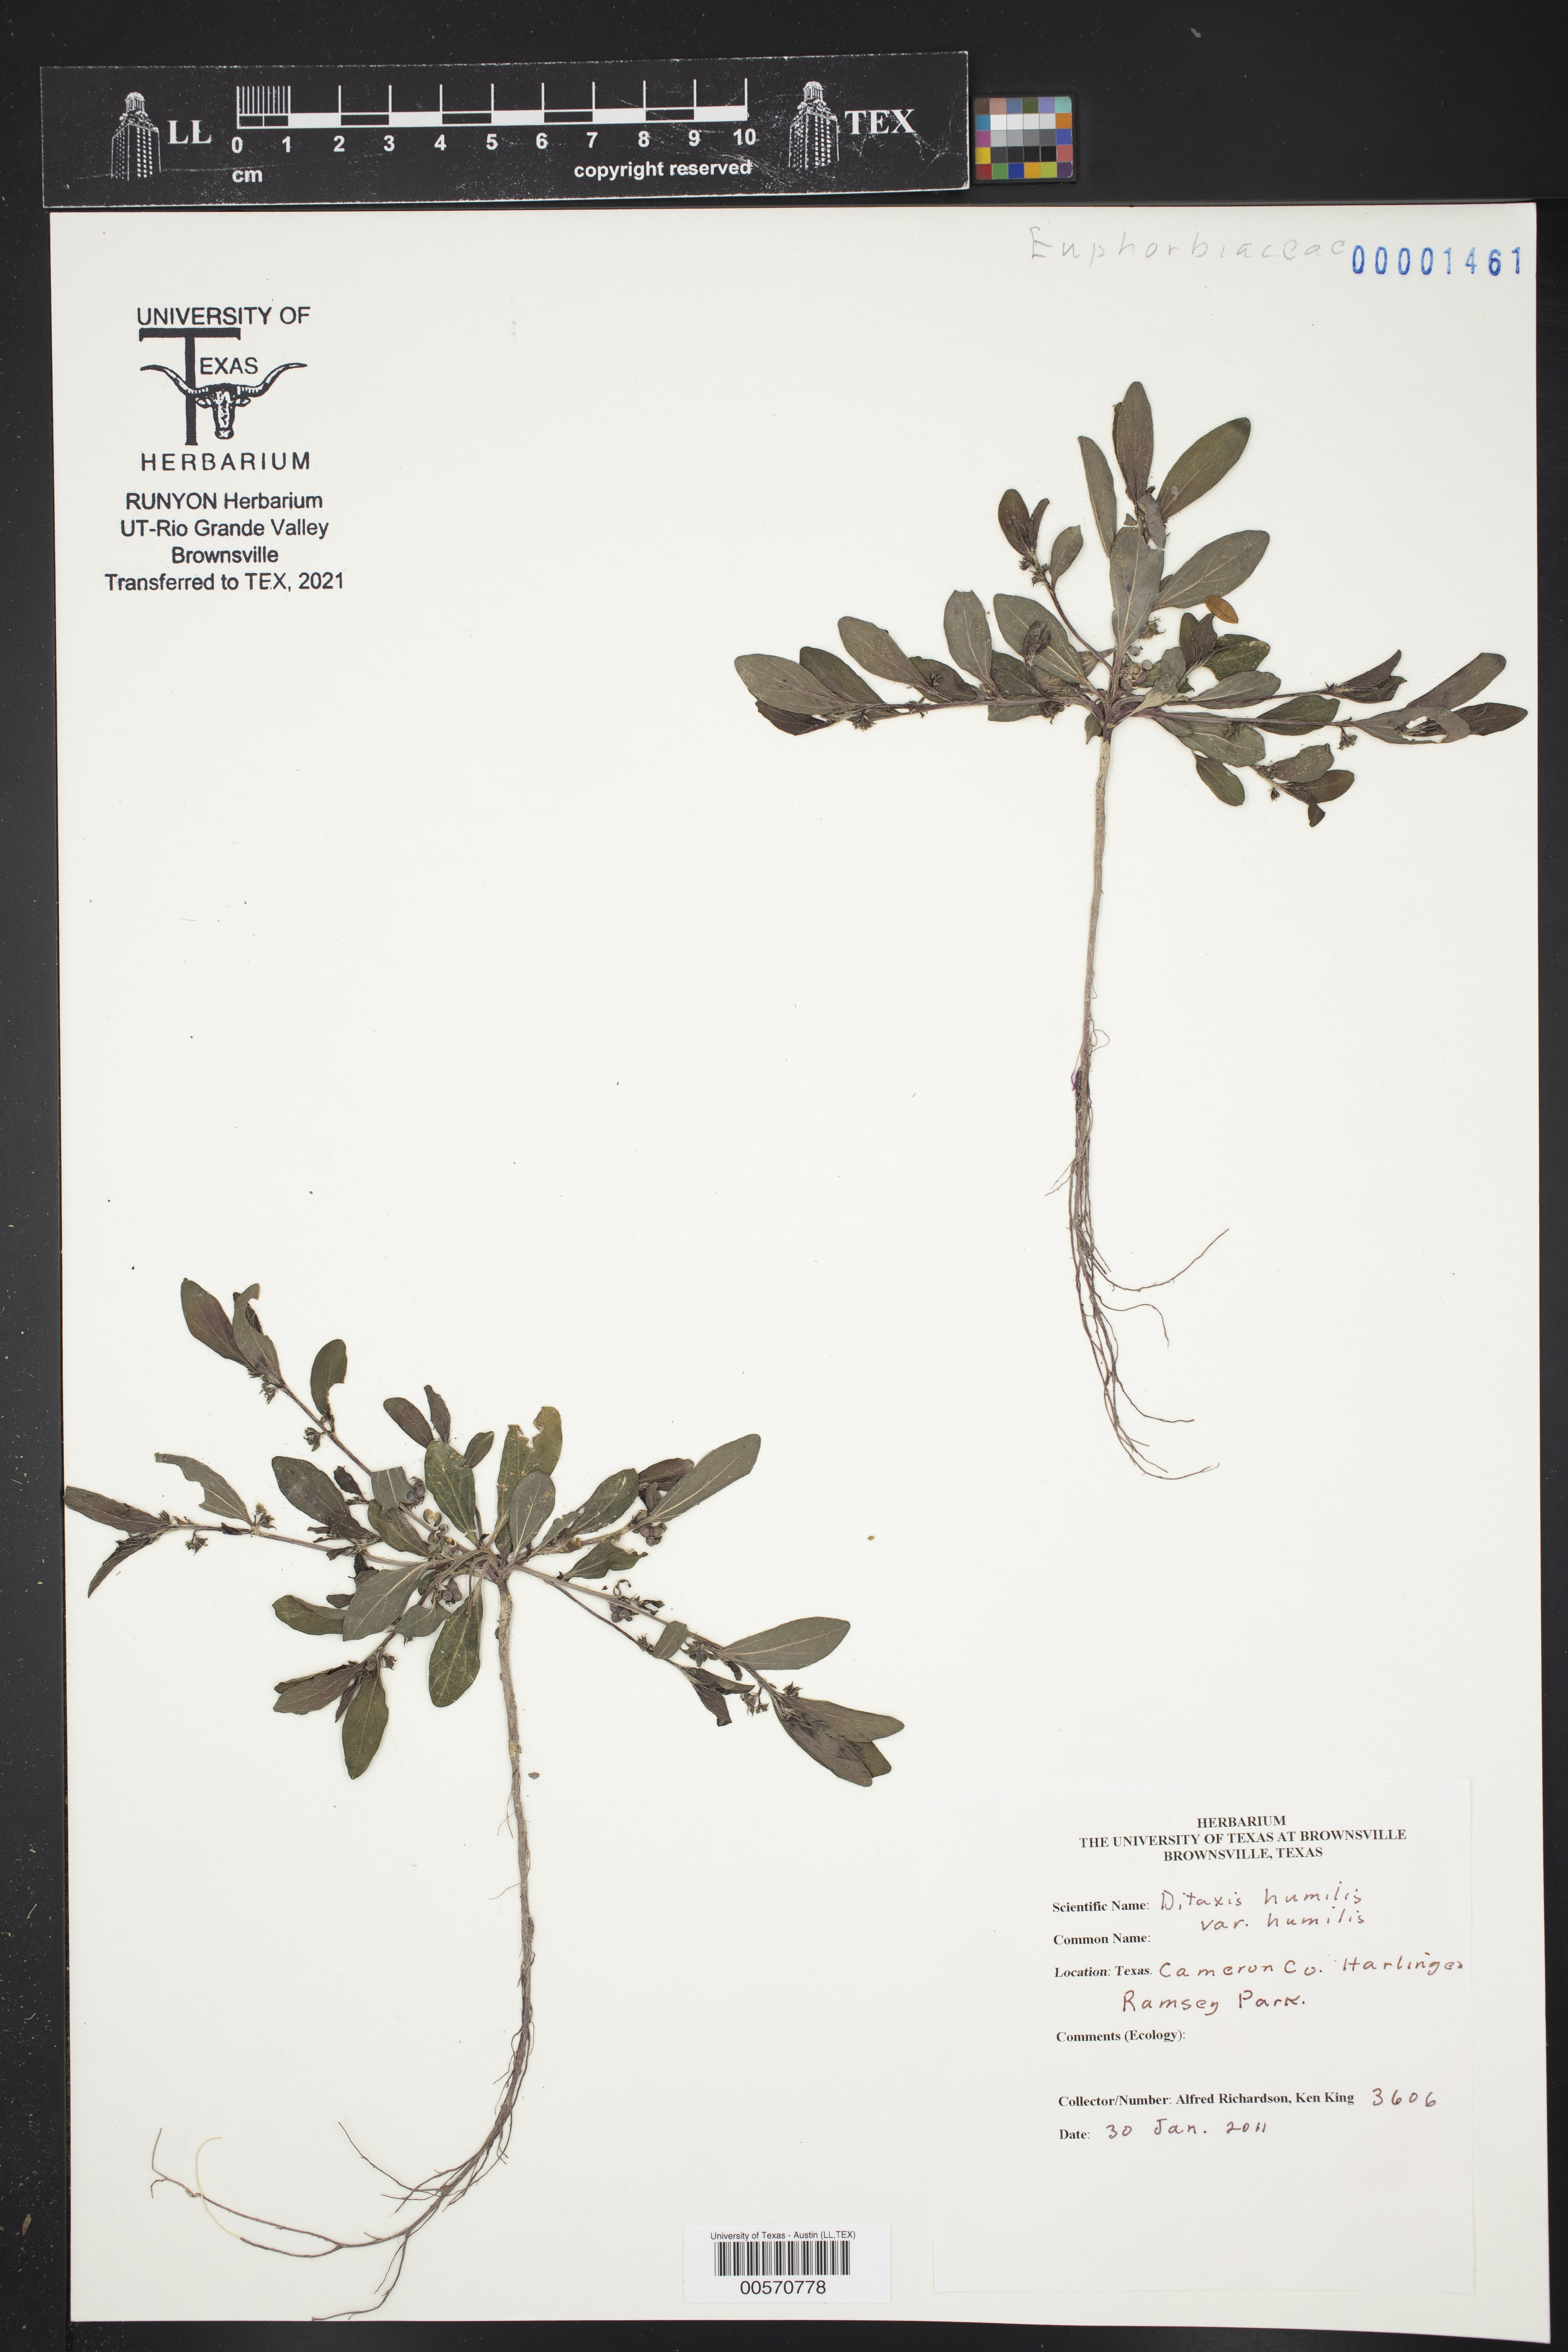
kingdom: Plantae
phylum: Tracheophyta
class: Magnoliopsida
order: Malpighiales
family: Euphorbiaceae
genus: Ditaxis
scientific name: Ditaxis humilis
